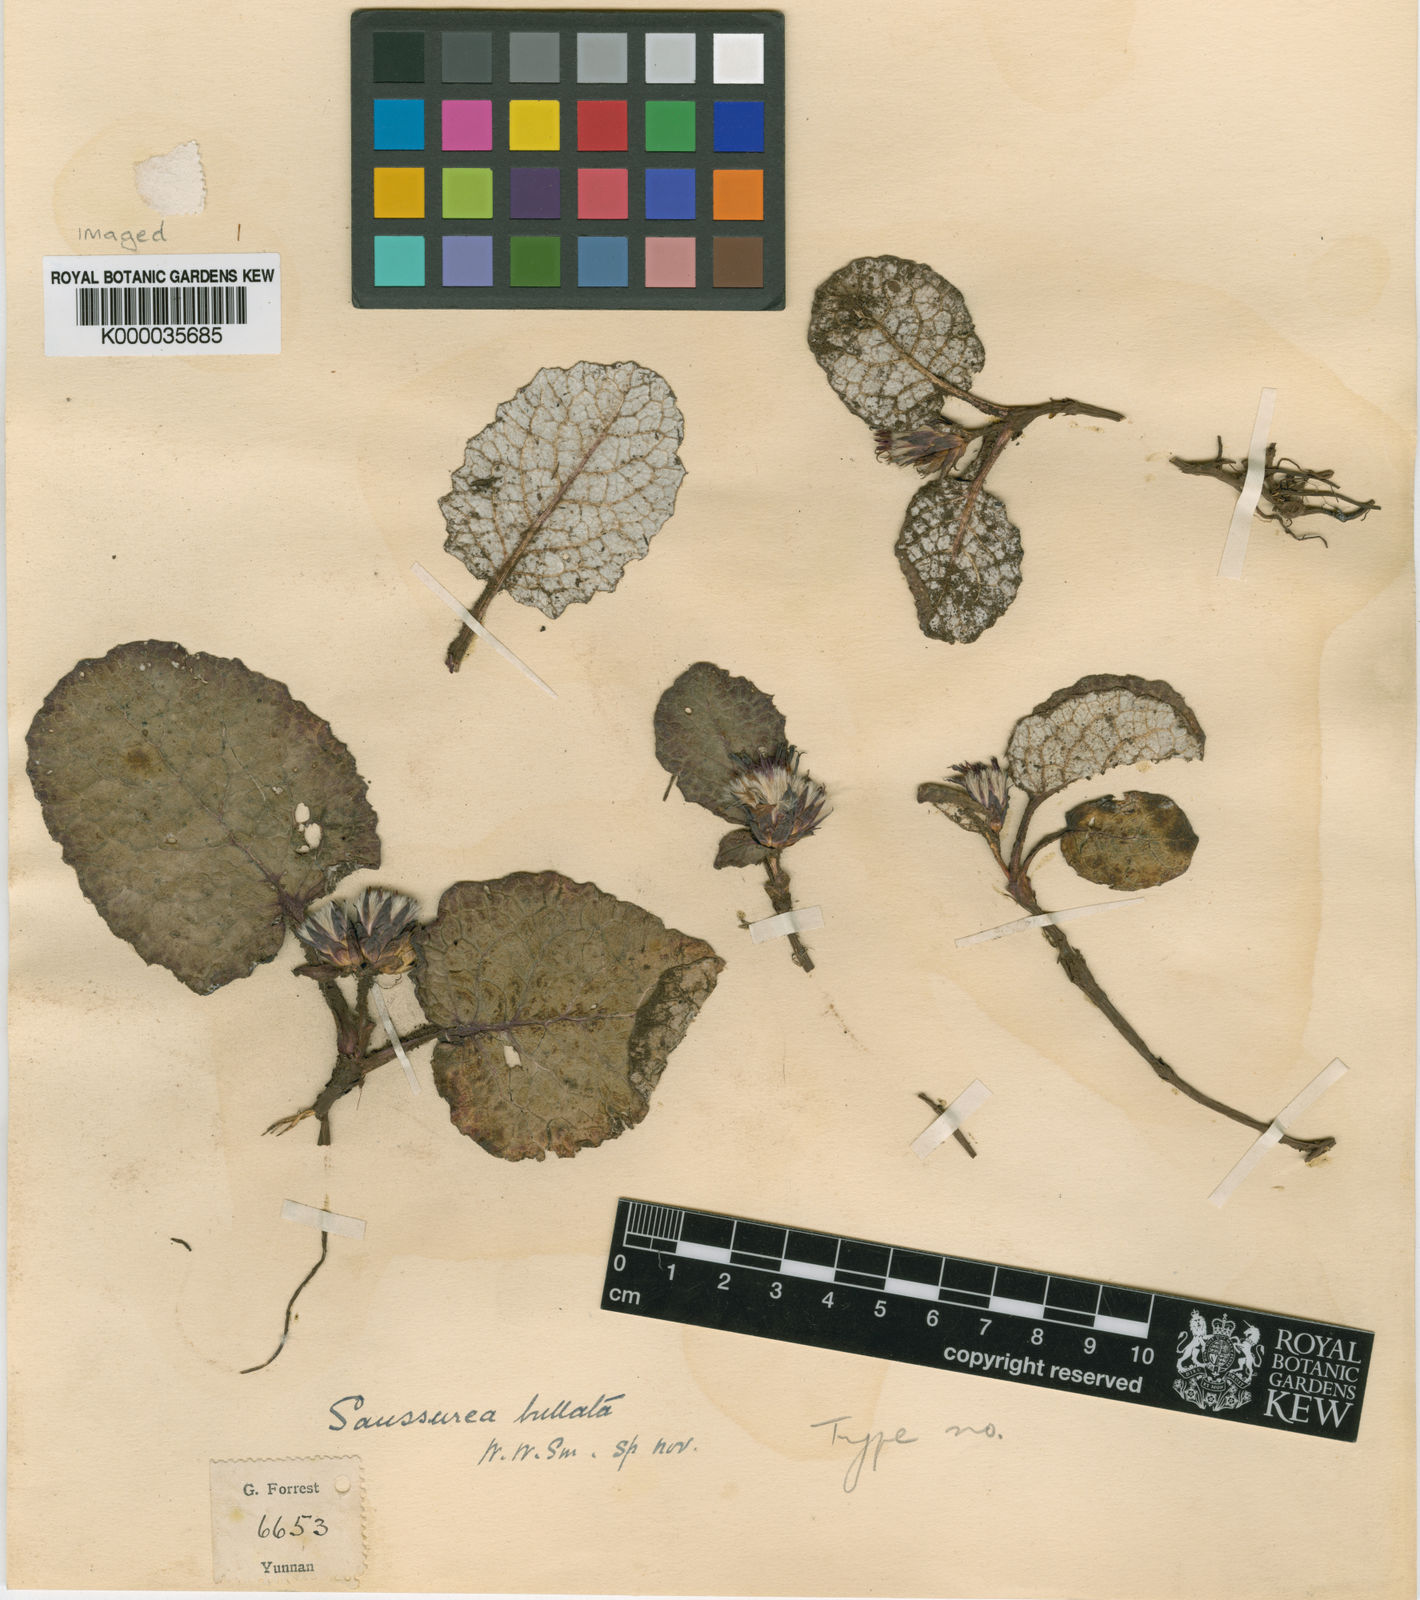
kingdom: Plantae
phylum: Tracheophyta
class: Magnoliopsida
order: Asterales
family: Asteraceae
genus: Saussurea
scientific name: Saussurea bullata
